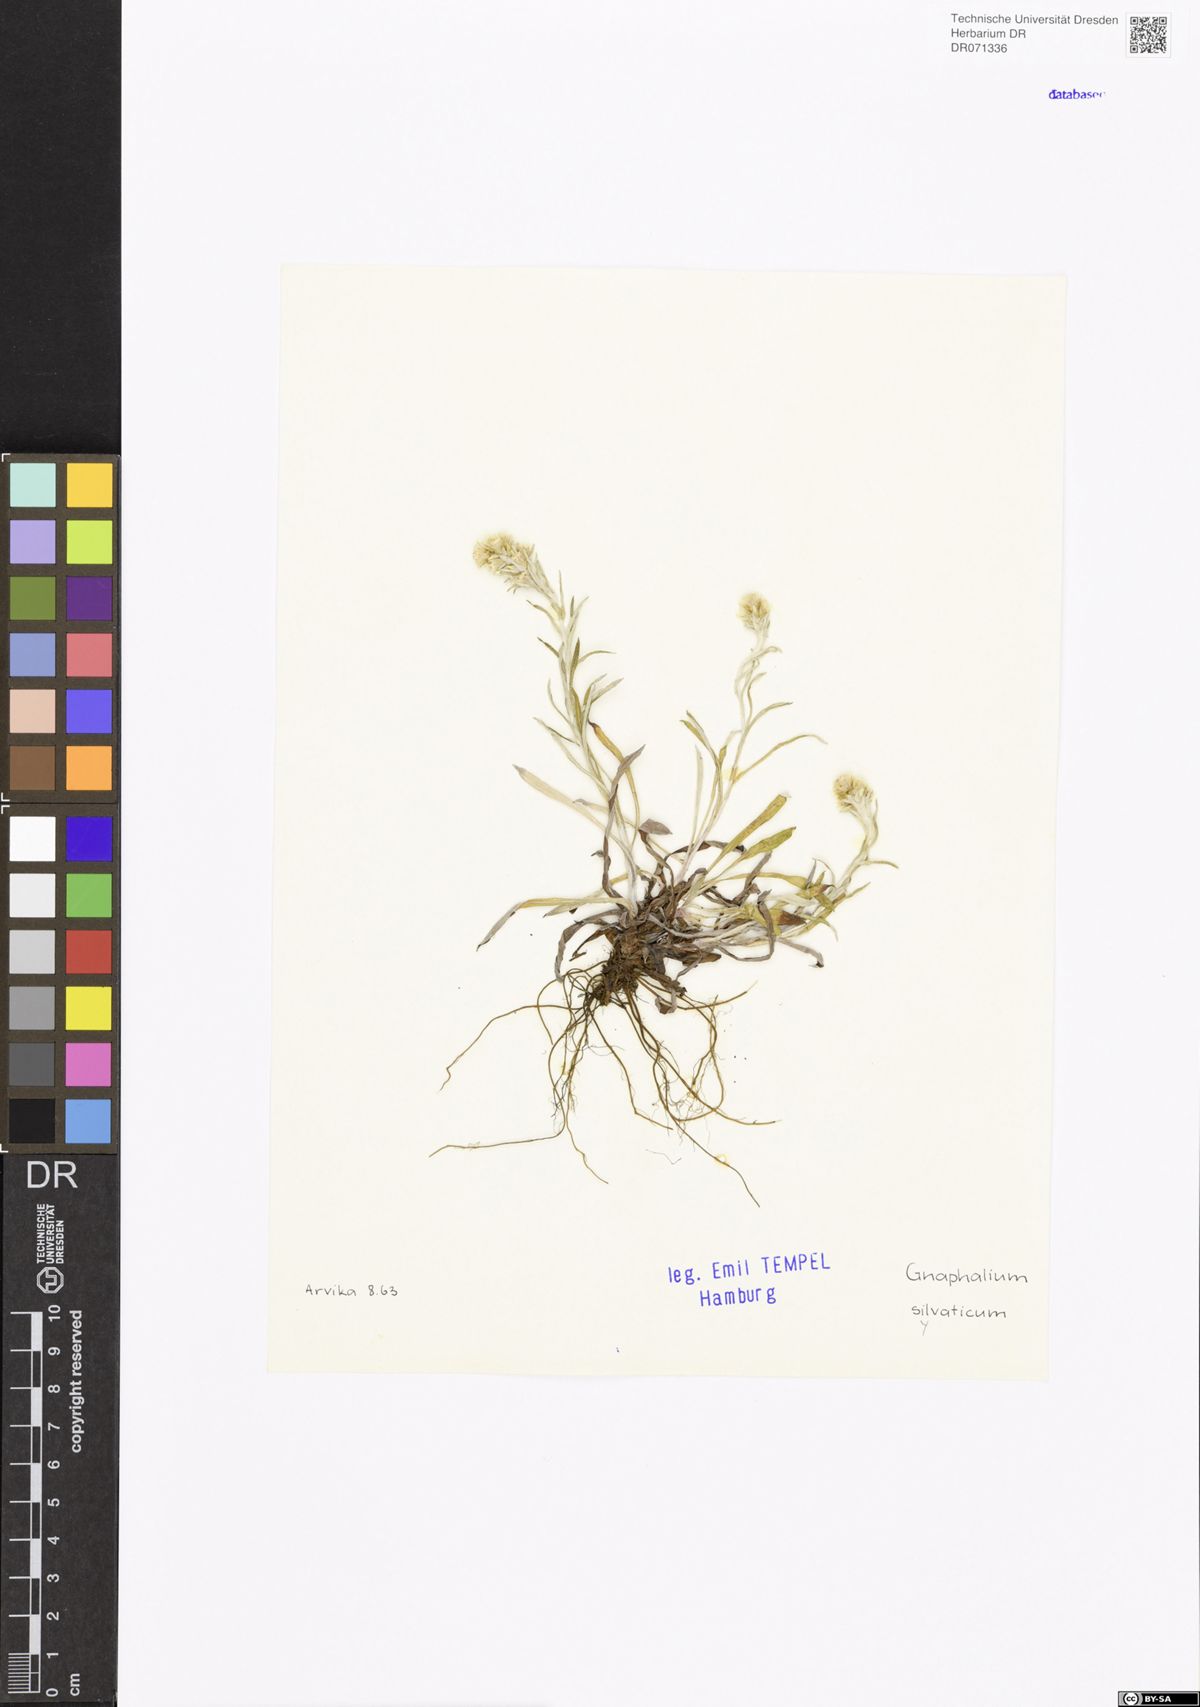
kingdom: Plantae
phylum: Tracheophyta
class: Magnoliopsida
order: Asterales
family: Asteraceae
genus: Omalotheca
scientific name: Omalotheca sylvatica
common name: Heath cudweed
